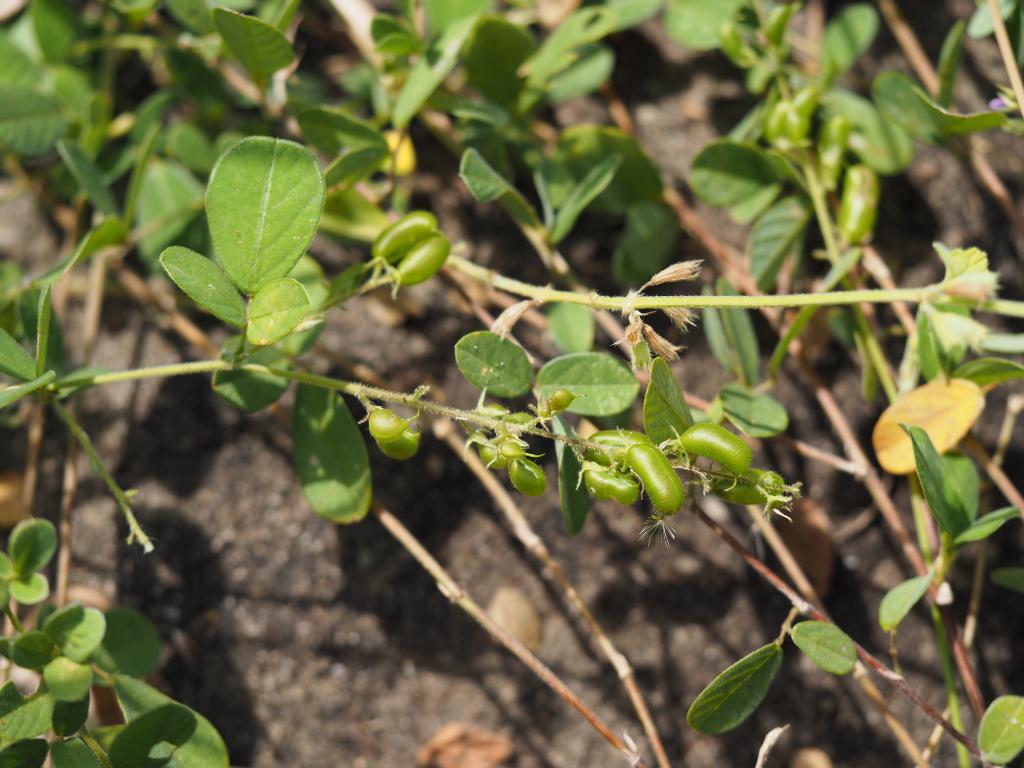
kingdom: Plantae
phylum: Tracheophyta
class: Magnoliopsida
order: Fabales
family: Fabaceae
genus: Pycnospora
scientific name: Pycnospora lutescens
